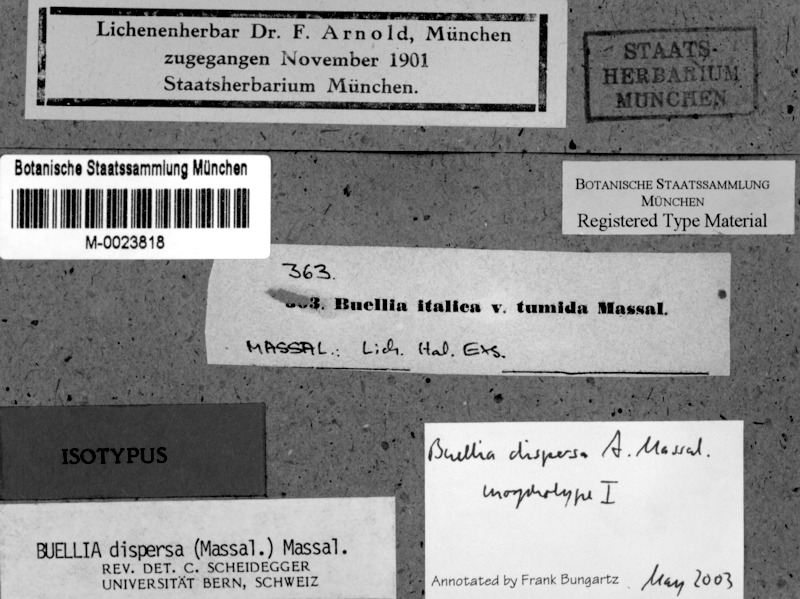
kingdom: Fungi
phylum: Ascomycota
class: Lecanoromycetes
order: Caliciales
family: Caliciaceae
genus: Buellia
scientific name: Buellia dispersa
